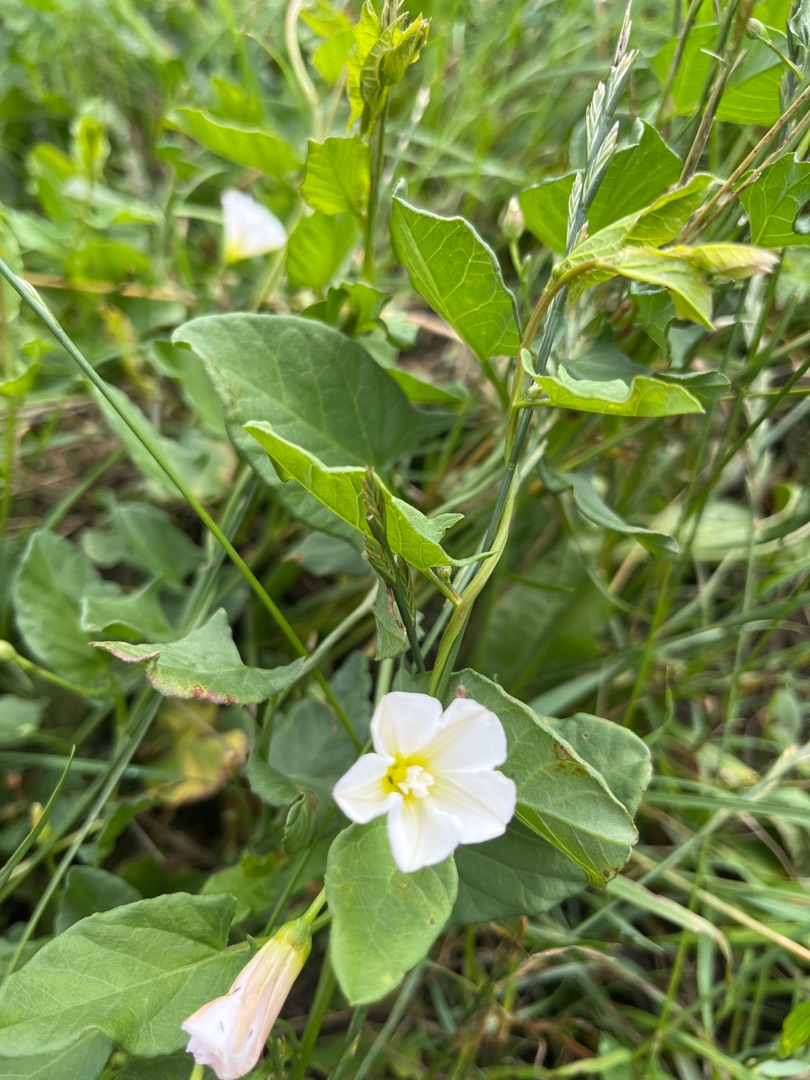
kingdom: Plantae
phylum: Tracheophyta
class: Magnoliopsida
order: Solanales
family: Convolvulaceae
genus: Convolvulus
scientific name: Convolvulus arvensis
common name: Ager-snerle
